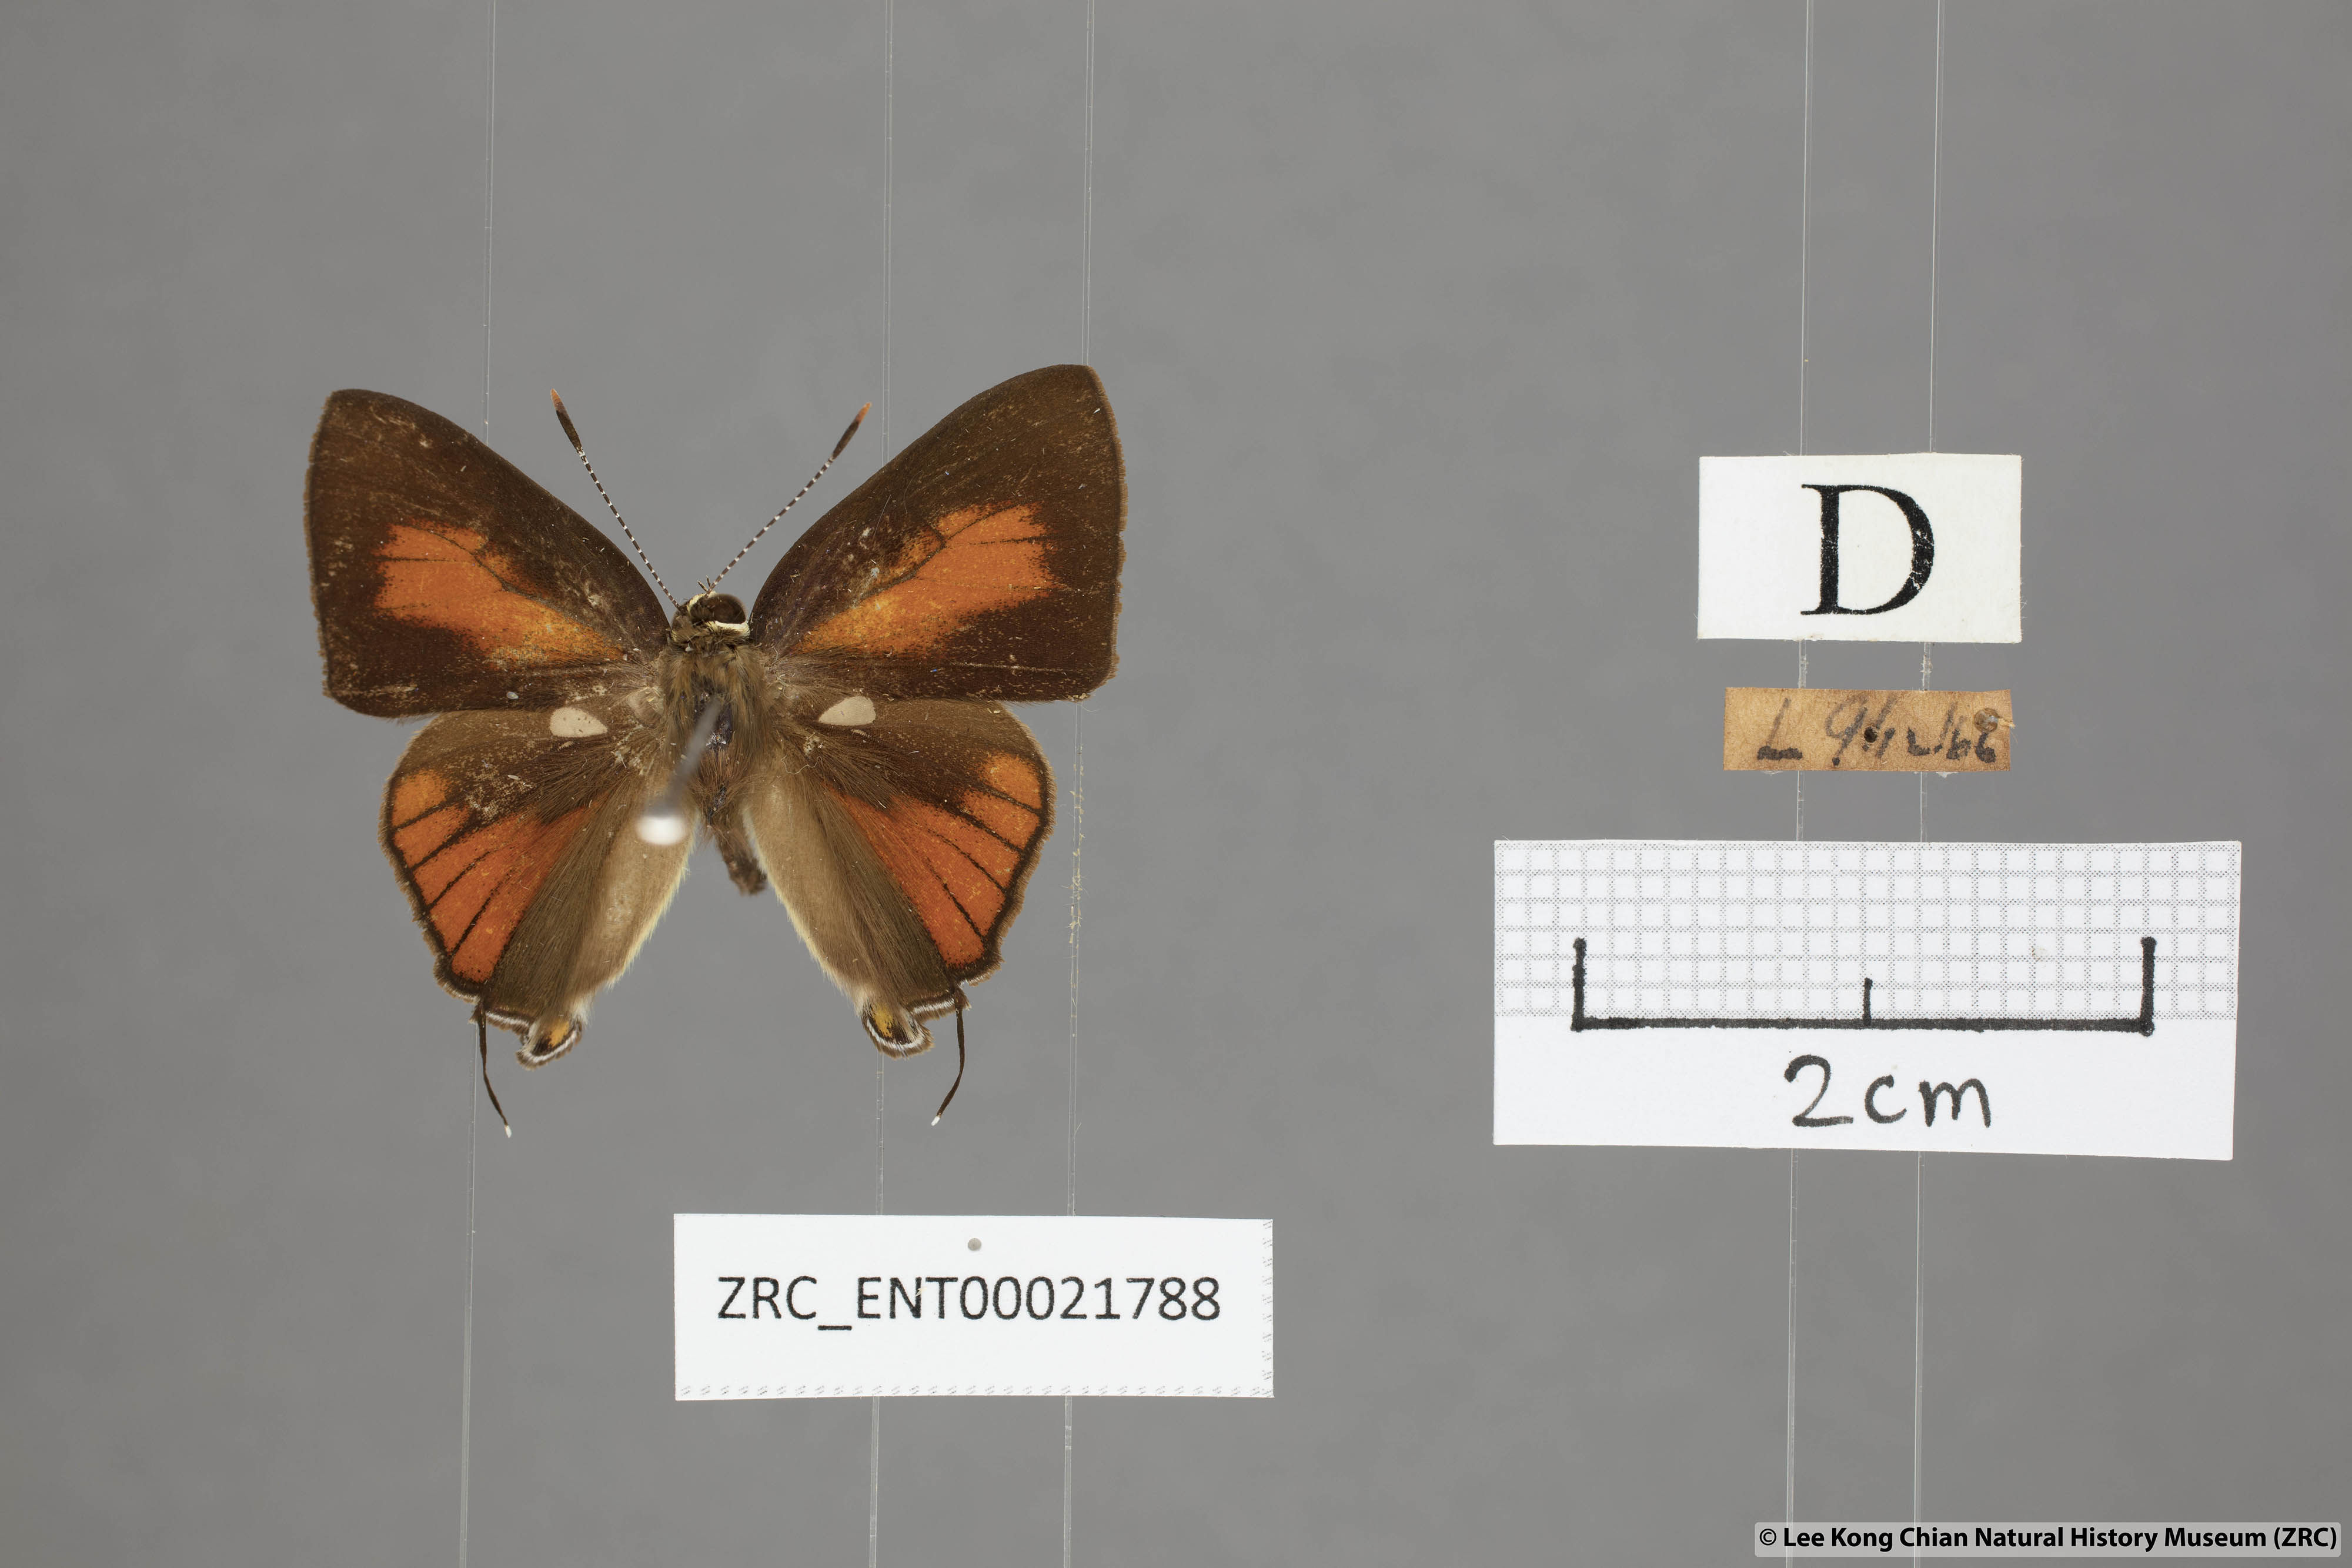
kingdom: Animalia
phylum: Arthropoda
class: Insecta
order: Lepidoptera
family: Lycaenidae
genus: Rapala
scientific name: Rapala dieneces
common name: Scarlet flash
